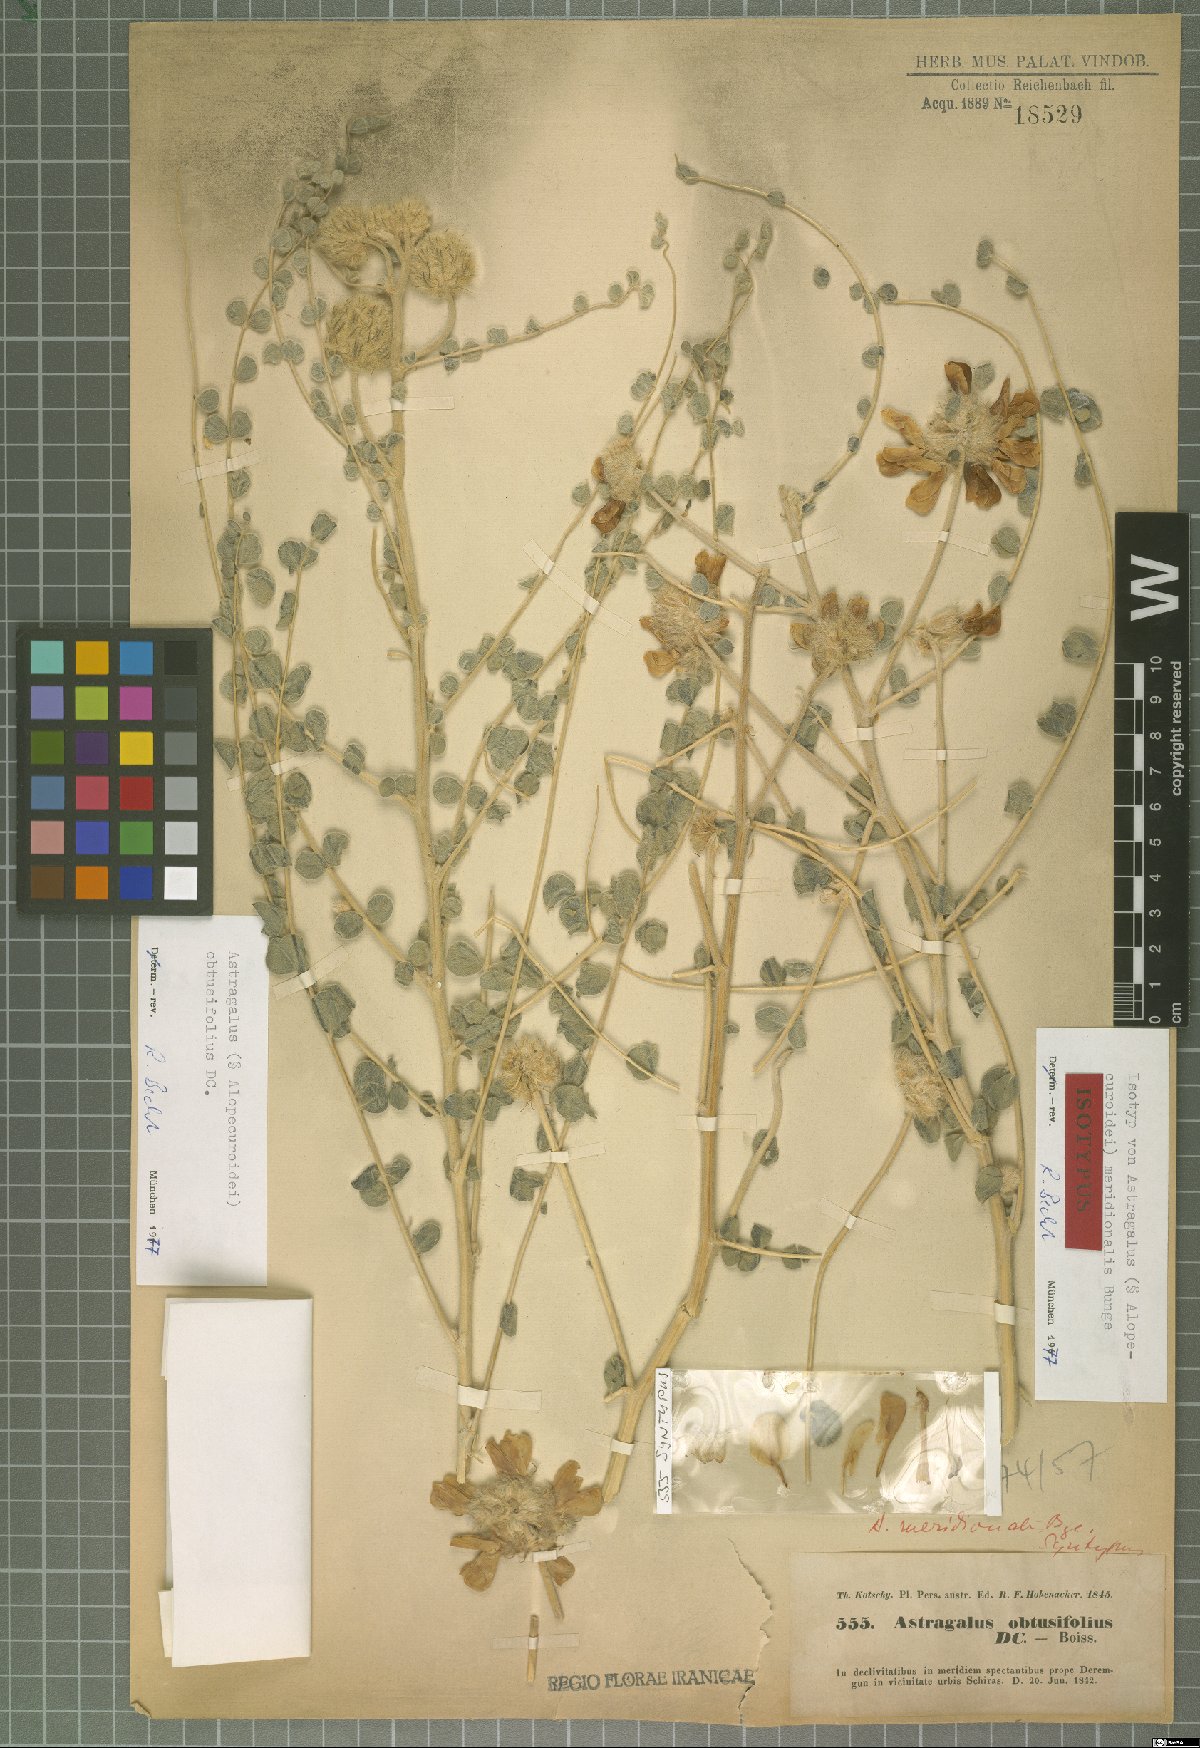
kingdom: Plantae
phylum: Tracheophyta
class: Magnoliopsida
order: Fabales
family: Fabaceae
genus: Astragalus
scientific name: Astragalus obtusifolius
